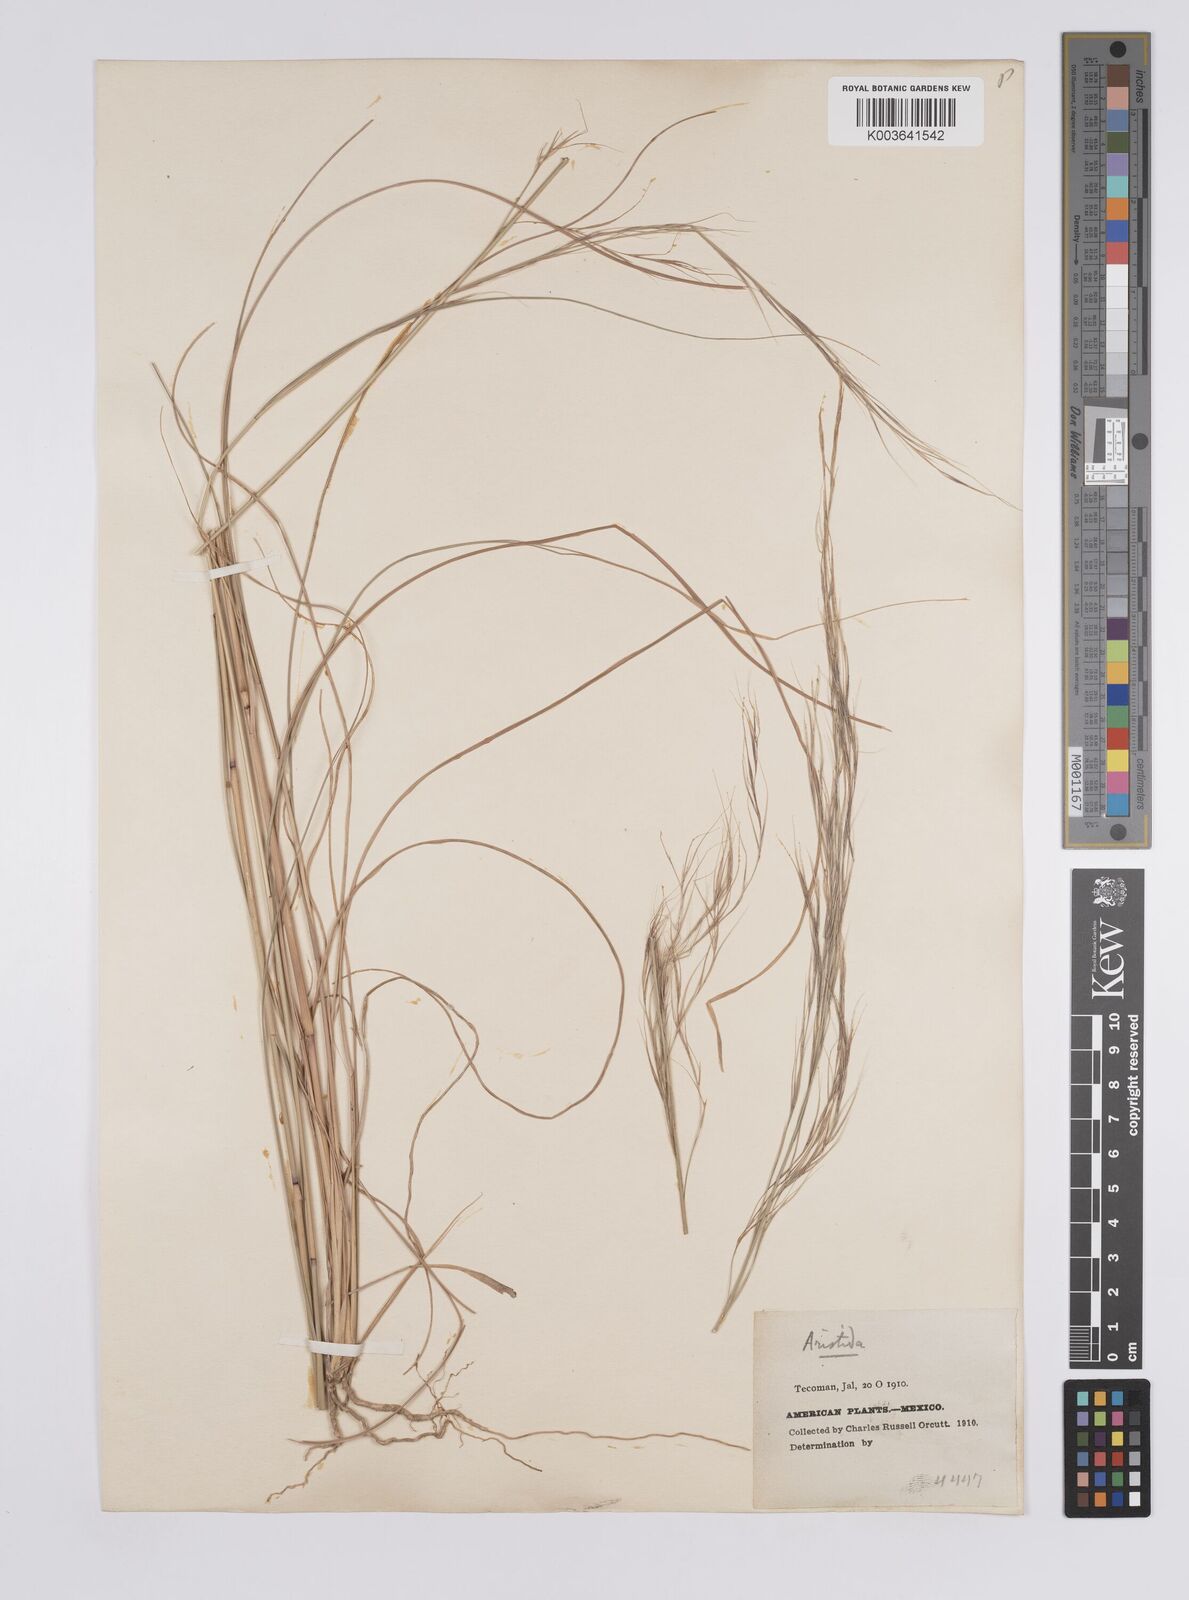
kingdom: Plantae
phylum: Tracheophyta
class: Liliopsida
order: Poales
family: Poaceae
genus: Aristida
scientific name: Aristida
